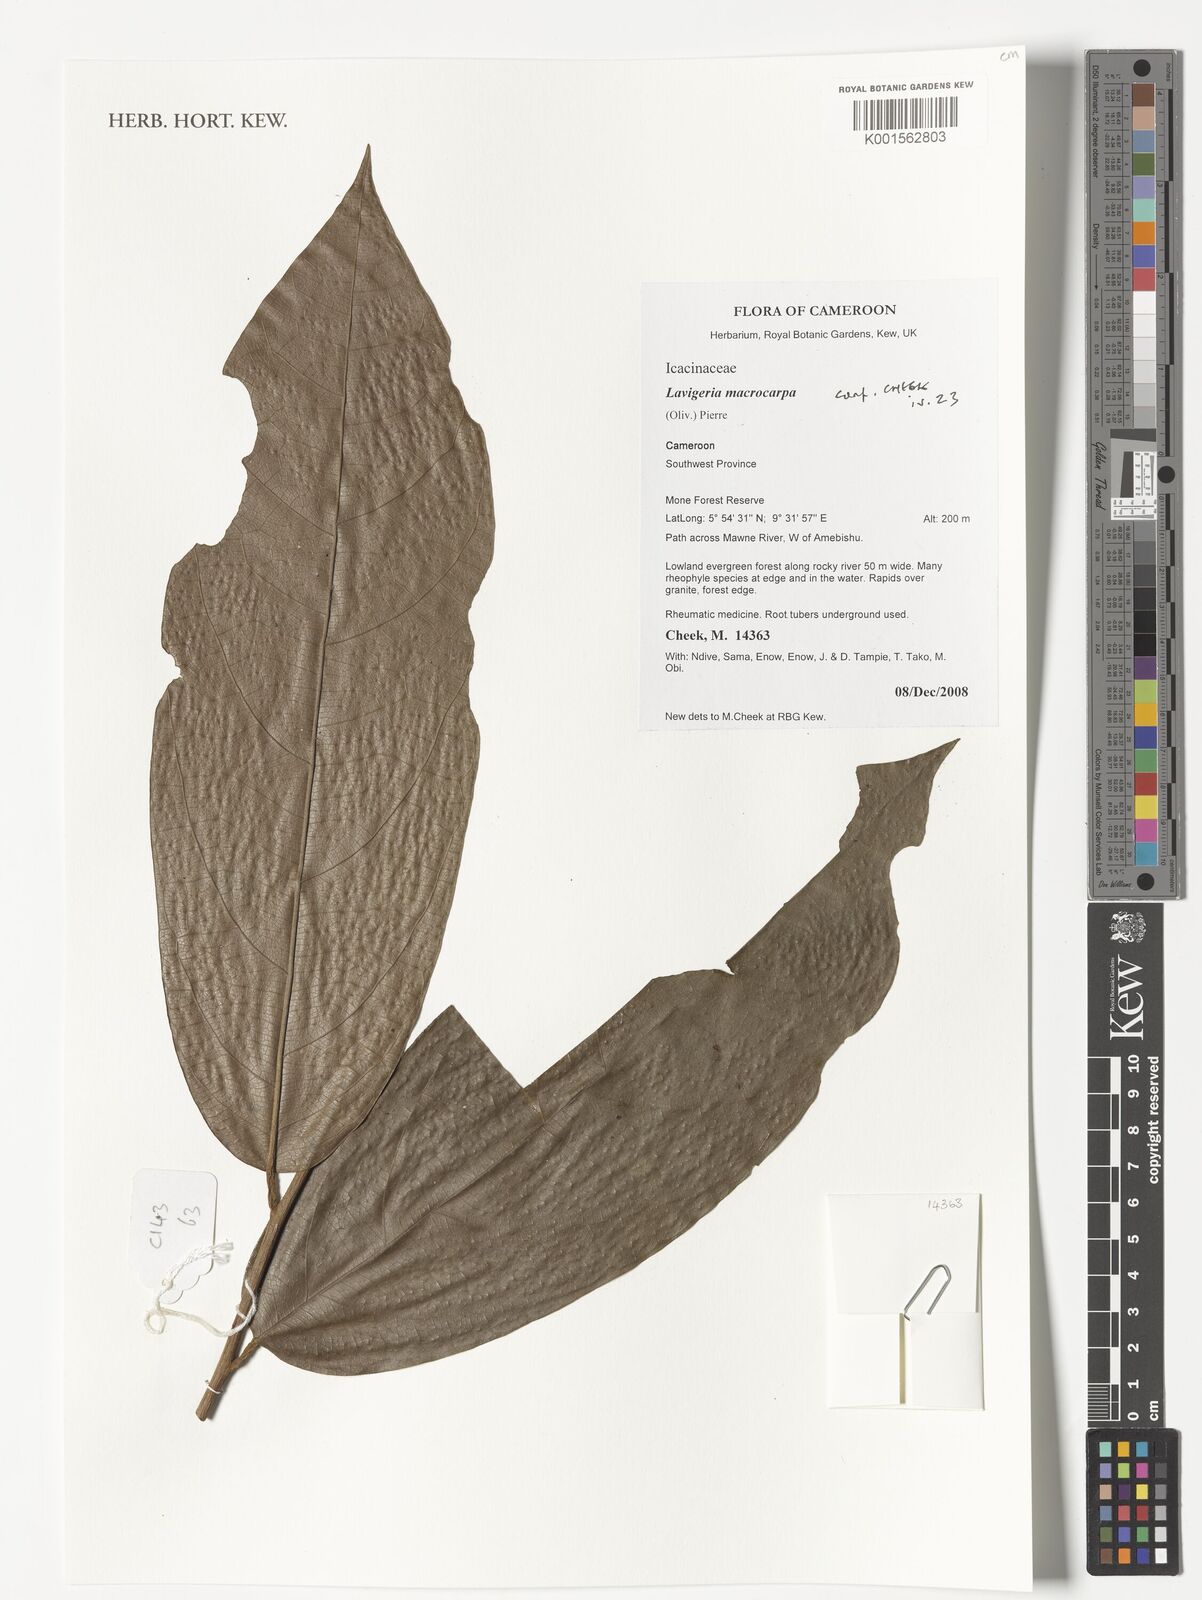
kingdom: Plantae
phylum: Tracheophyta
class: Magnoliopsida
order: Icacinales
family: Icacinaceae
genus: Lavigeria
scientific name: Lavigeria macrocarpa
